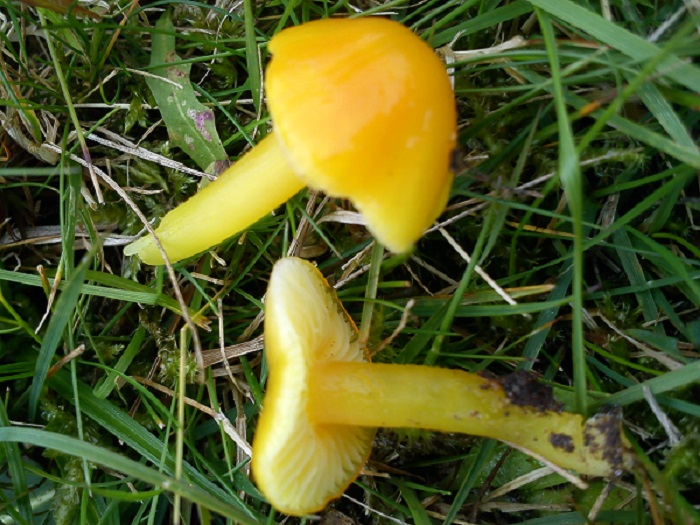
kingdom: Fungi
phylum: Basidiomycota
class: Agaricomycetes
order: Agaricales
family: Hygrophoraceae
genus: Hygrocybe
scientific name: Hygrocybe chlorophana
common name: gul vokshat
